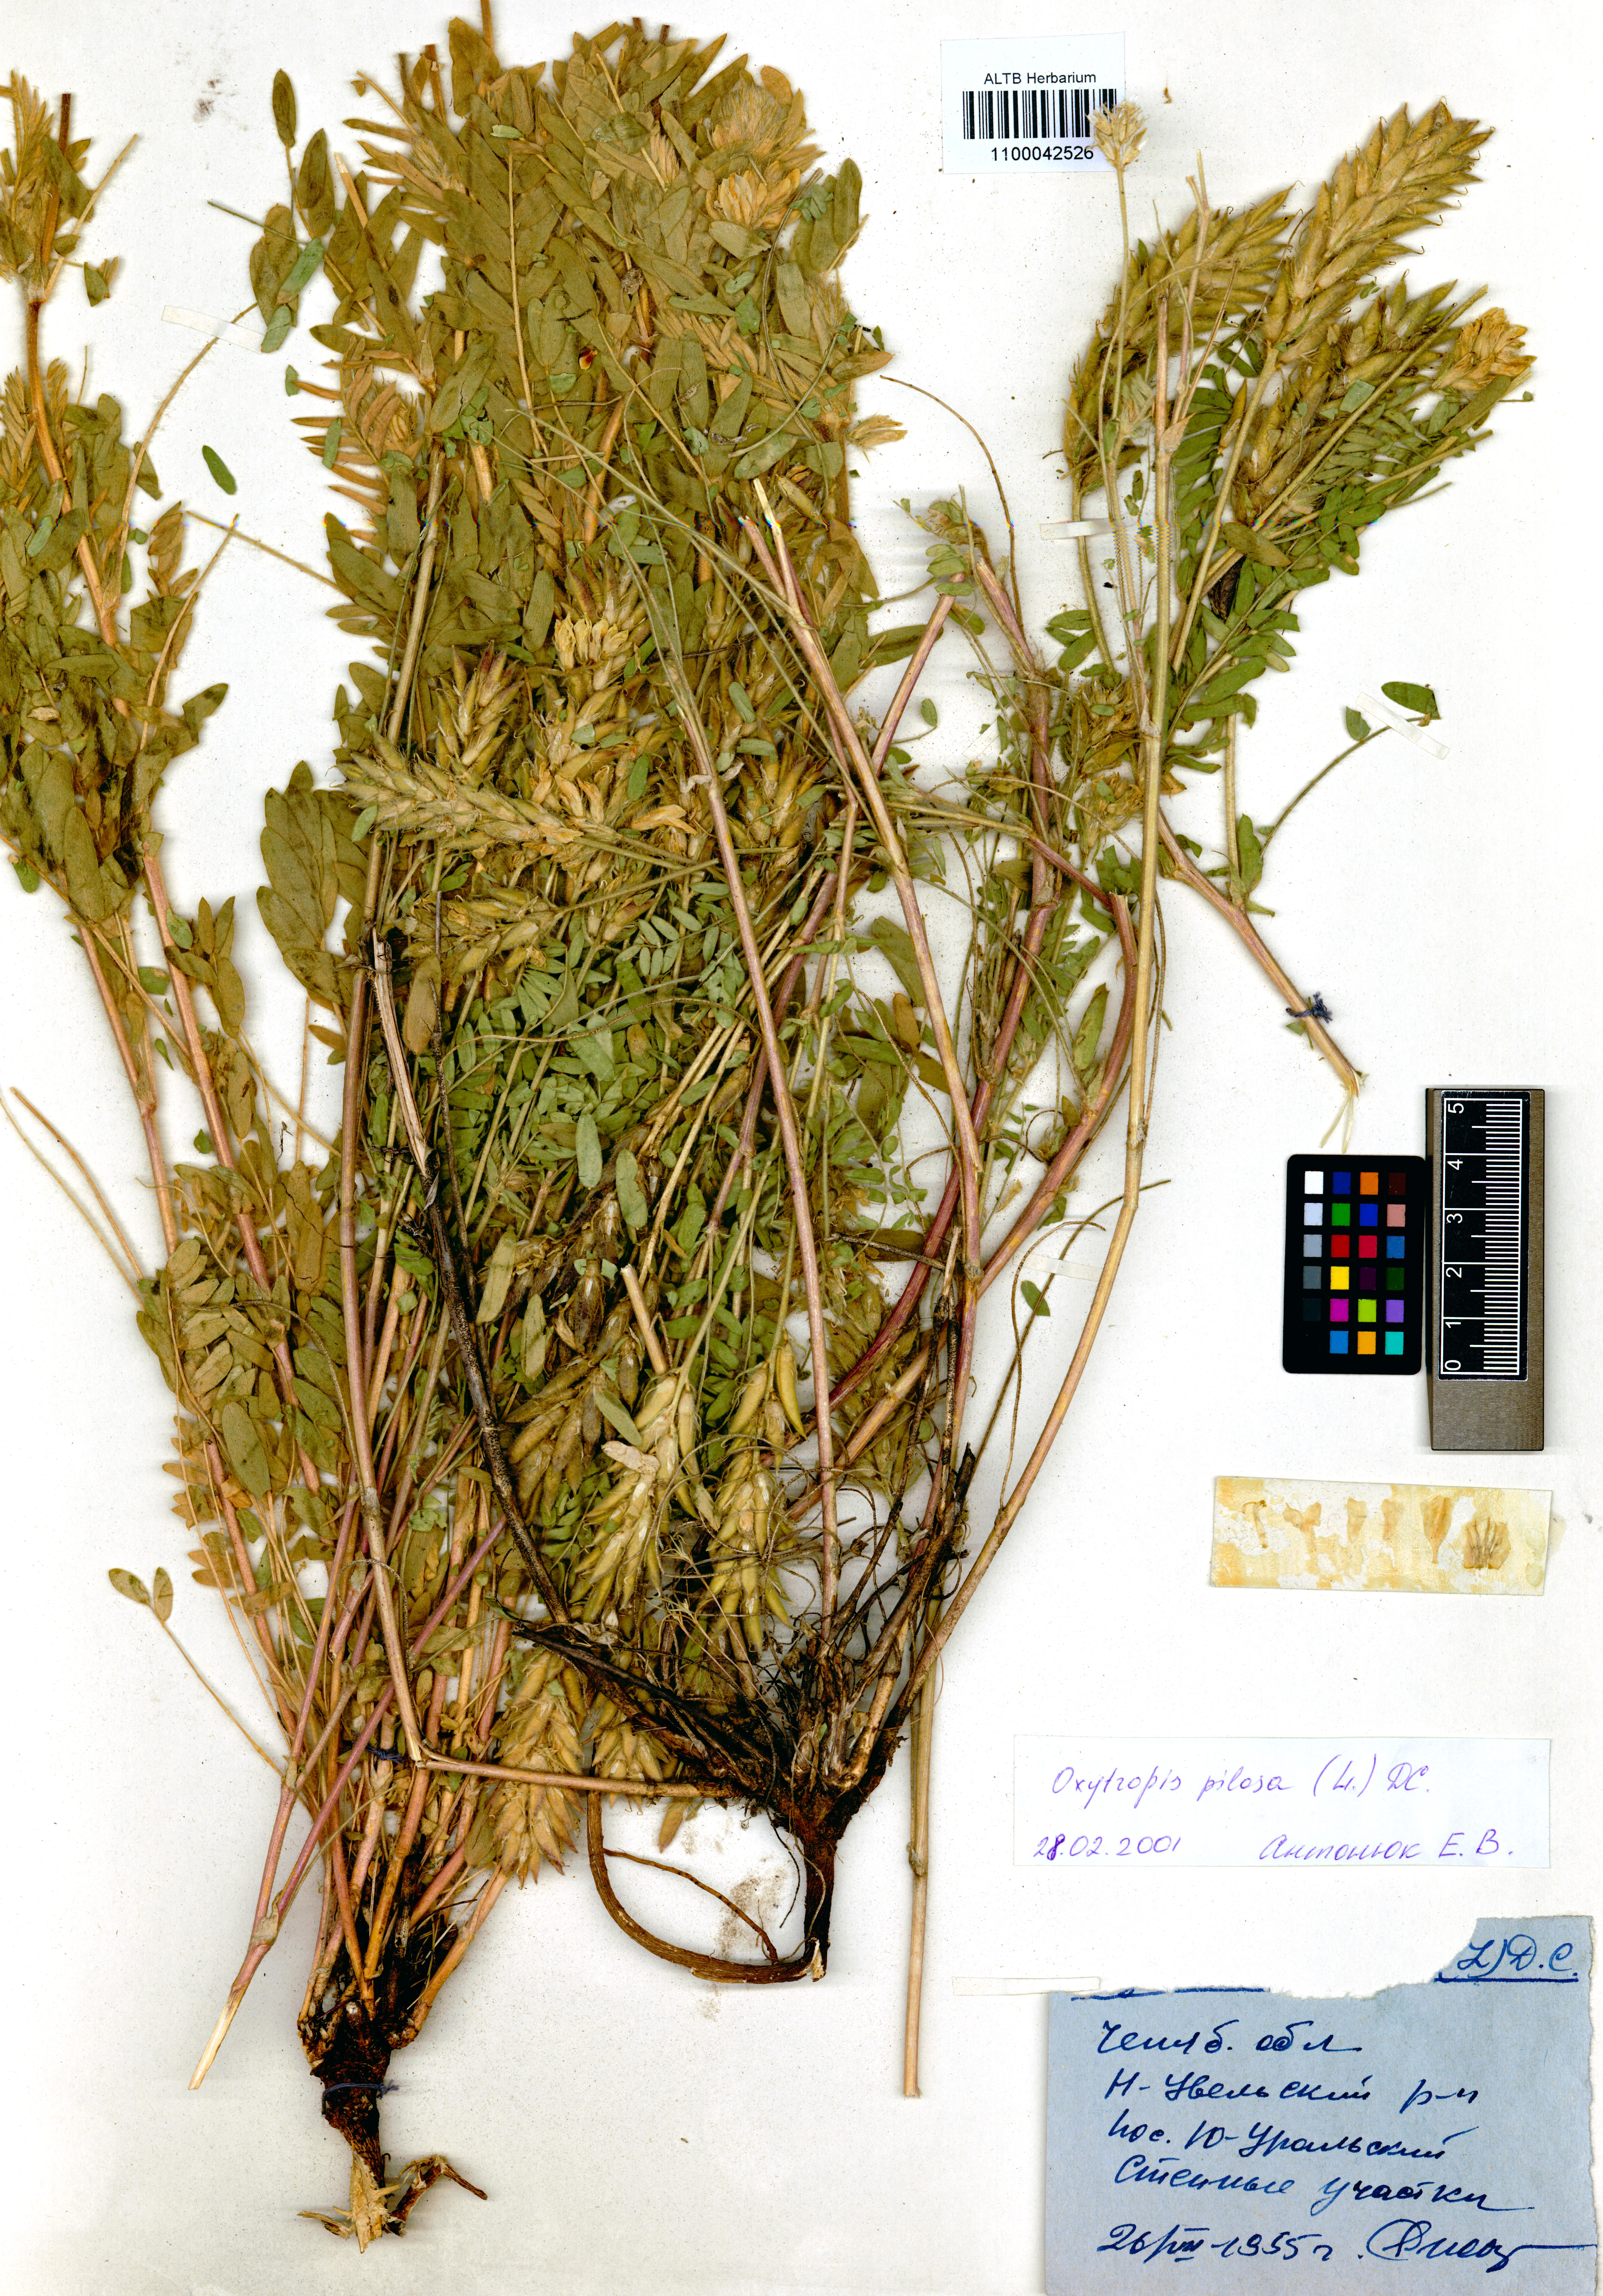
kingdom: Plantae
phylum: Tracheophyta
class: Magnoliopsida
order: Fabales
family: Fabaceae
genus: Oxytropis
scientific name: Oxytropis pilosa
